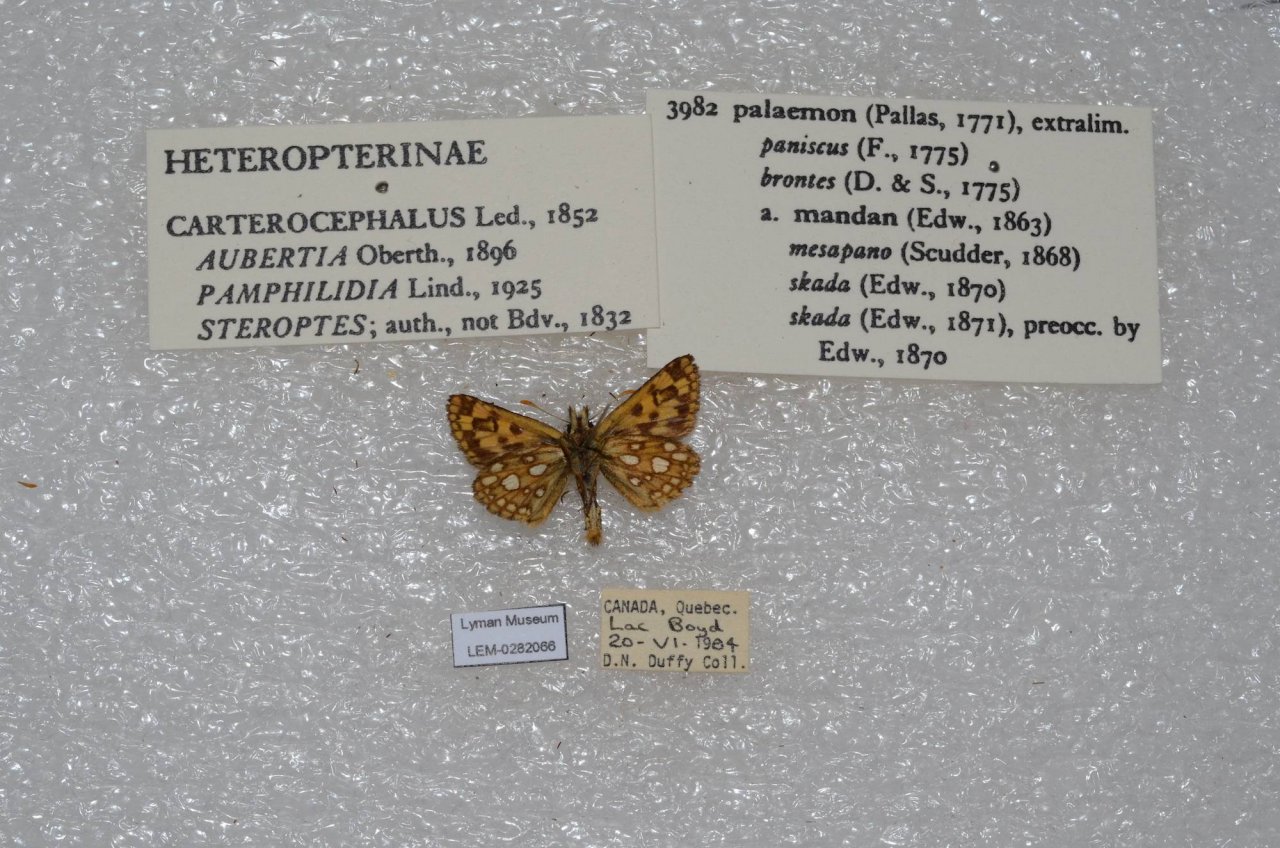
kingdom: Animalia
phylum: Arthropoda
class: Insecta
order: Lepidoptera
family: Hesperiidae
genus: Carterocephalus
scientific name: Carterocephalus palaemon
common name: Chequered Skipper
